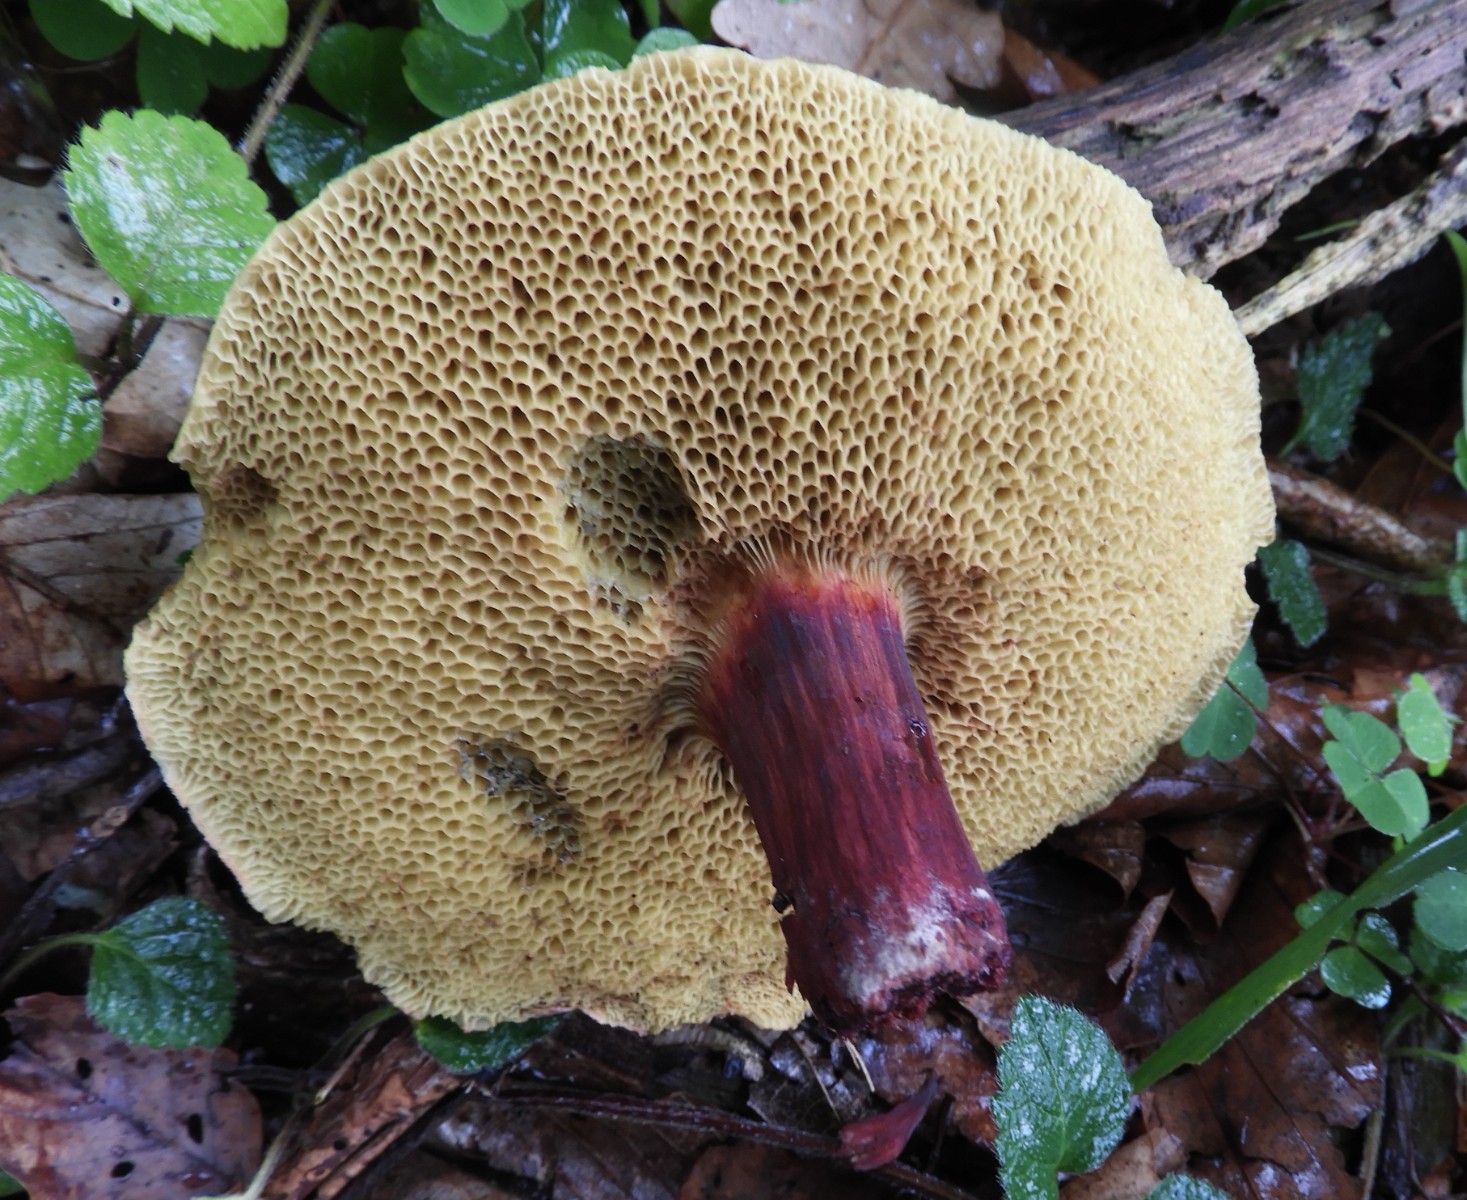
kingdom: Fungi
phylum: Basidiomycota
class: Agaricomycetes
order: Boletales
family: Boletaceae
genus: Xerocomellus
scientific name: Xerocomellus chrysenteron
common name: rødsprukken rørhat
